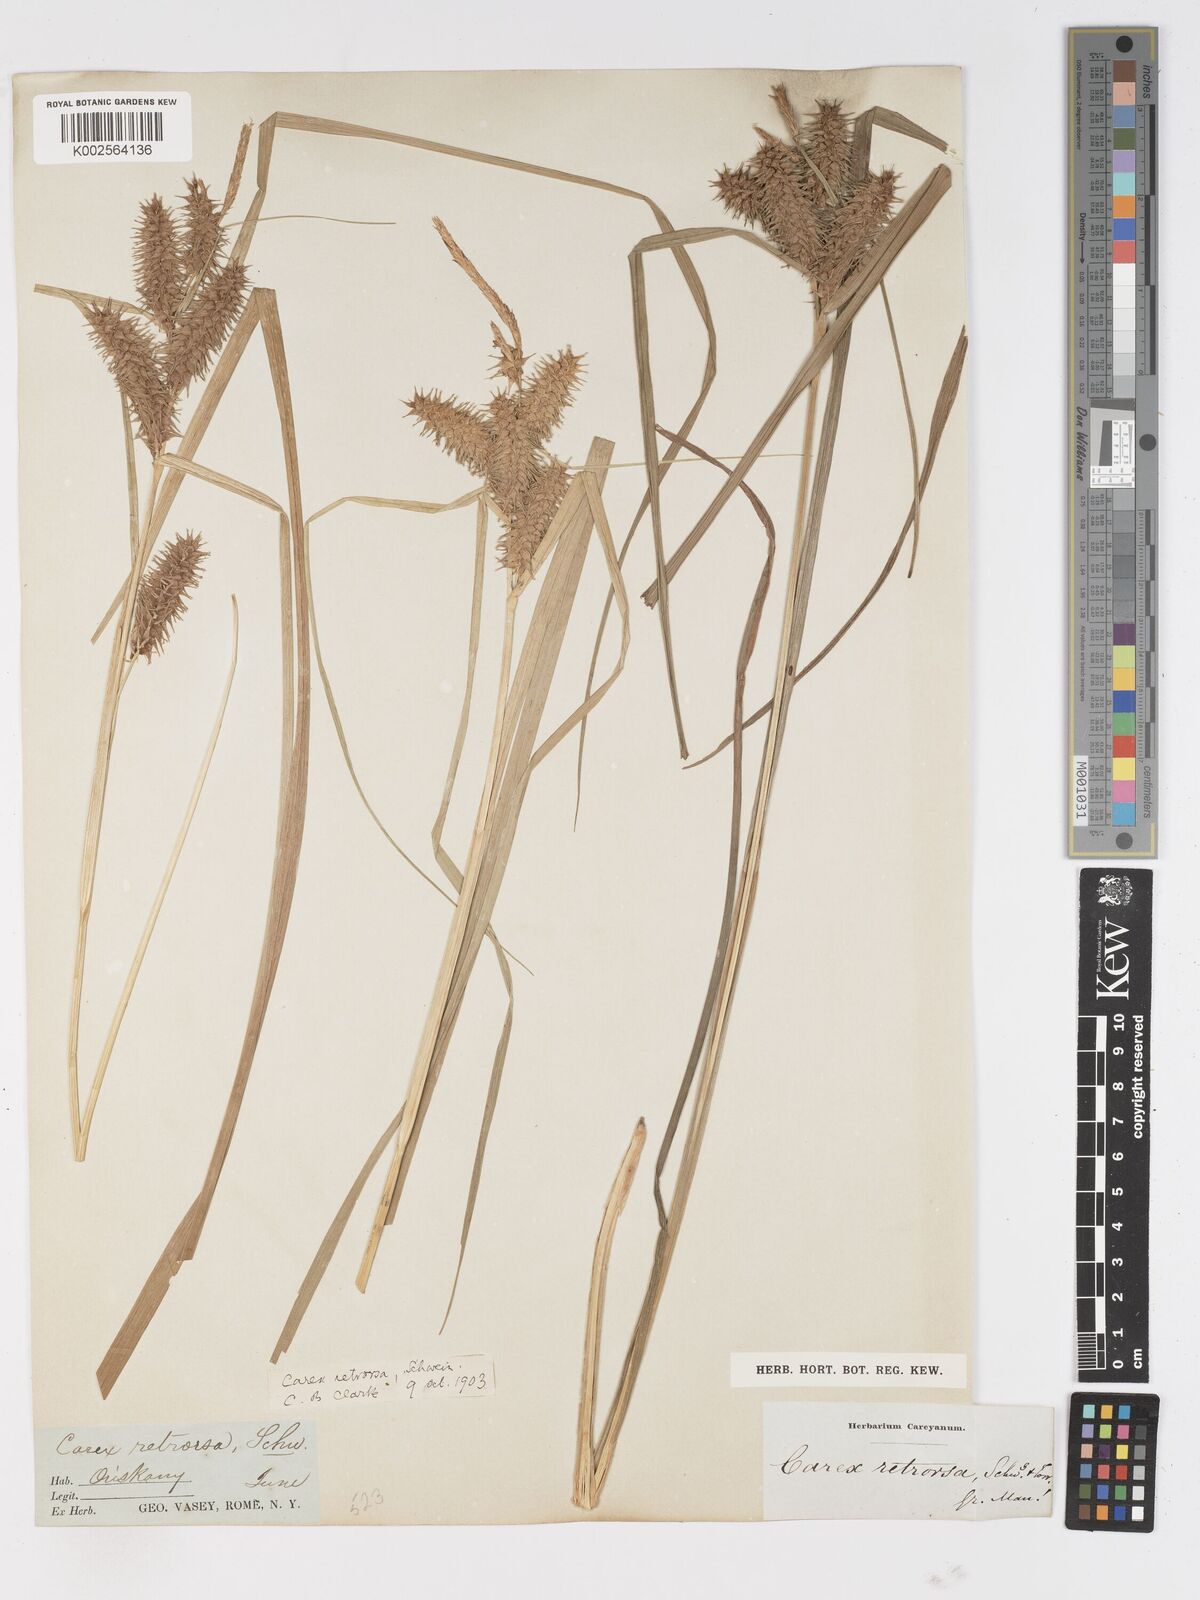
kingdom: Plantae
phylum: Tracheophyta
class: Liliopsida
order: Poales
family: Cyperaceae
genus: Carex
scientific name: Carex retrorsa
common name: Knot-sheath sedge
